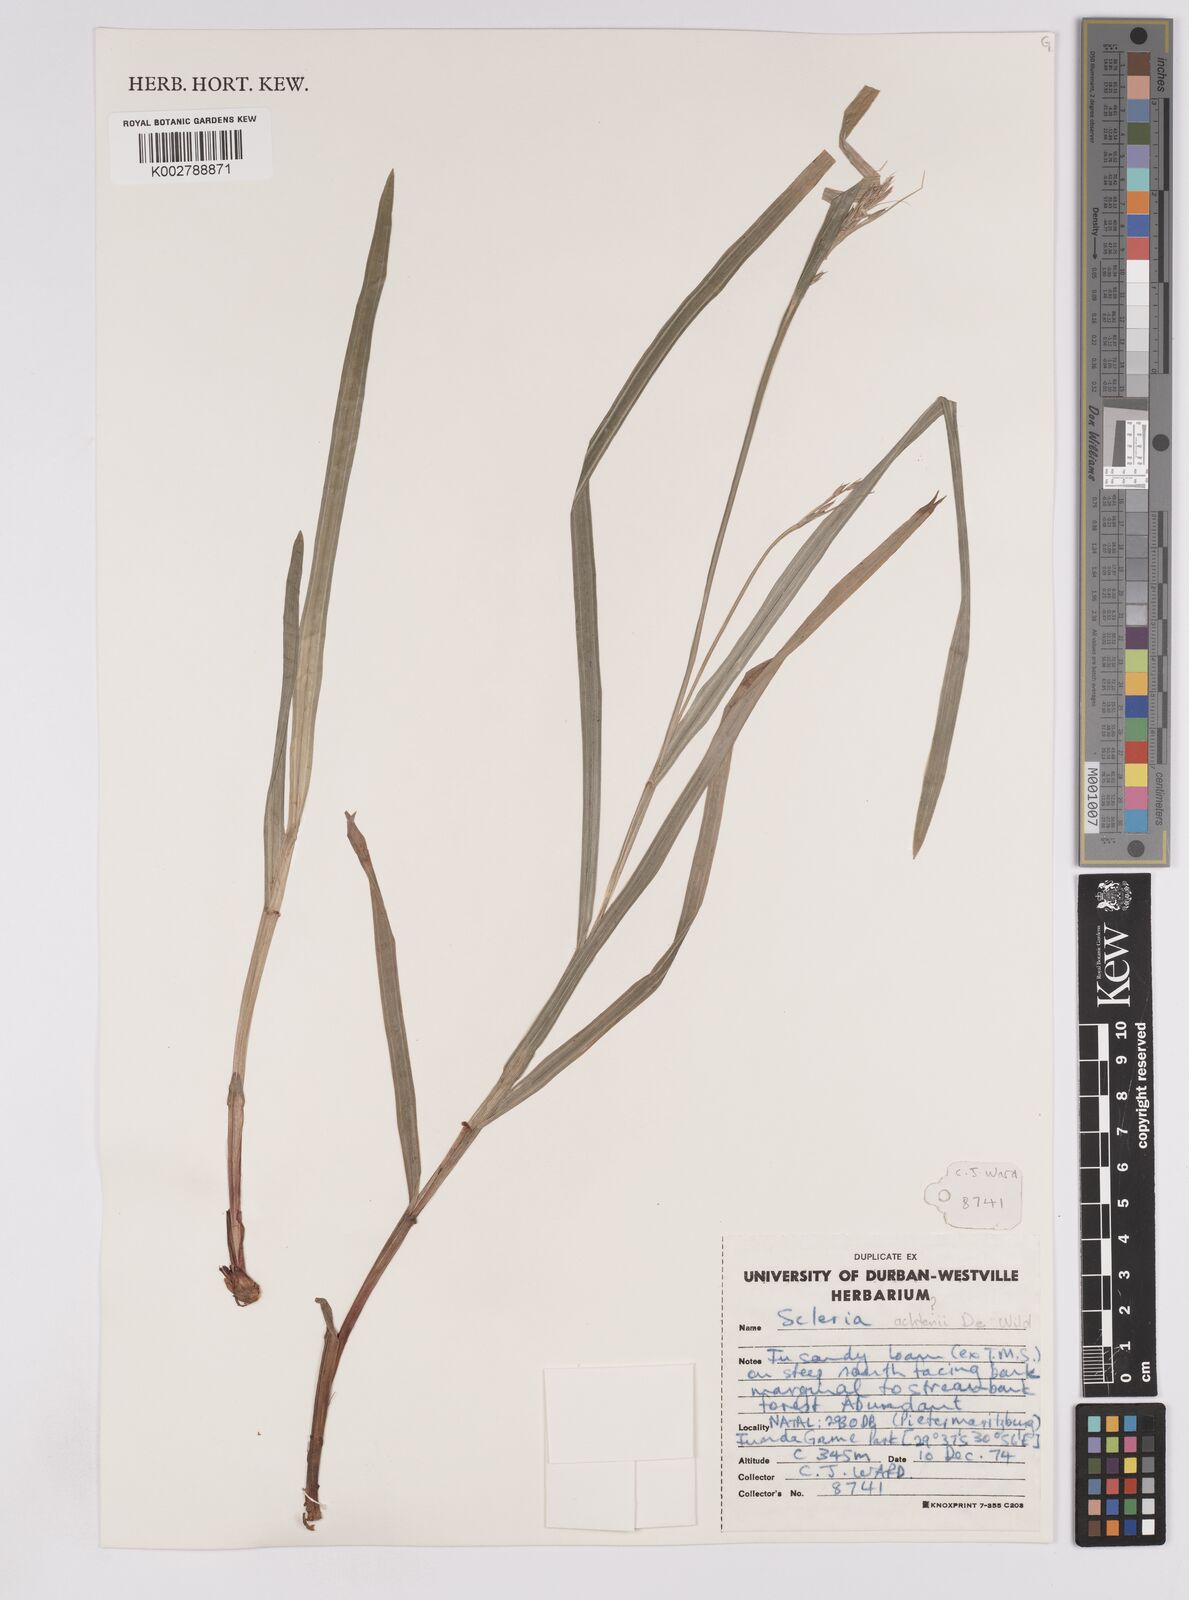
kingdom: Plantae
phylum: Tracheophyta
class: Liliopsida
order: Poales
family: Cyperaceae
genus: Scleria
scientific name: Scleria achtenii
